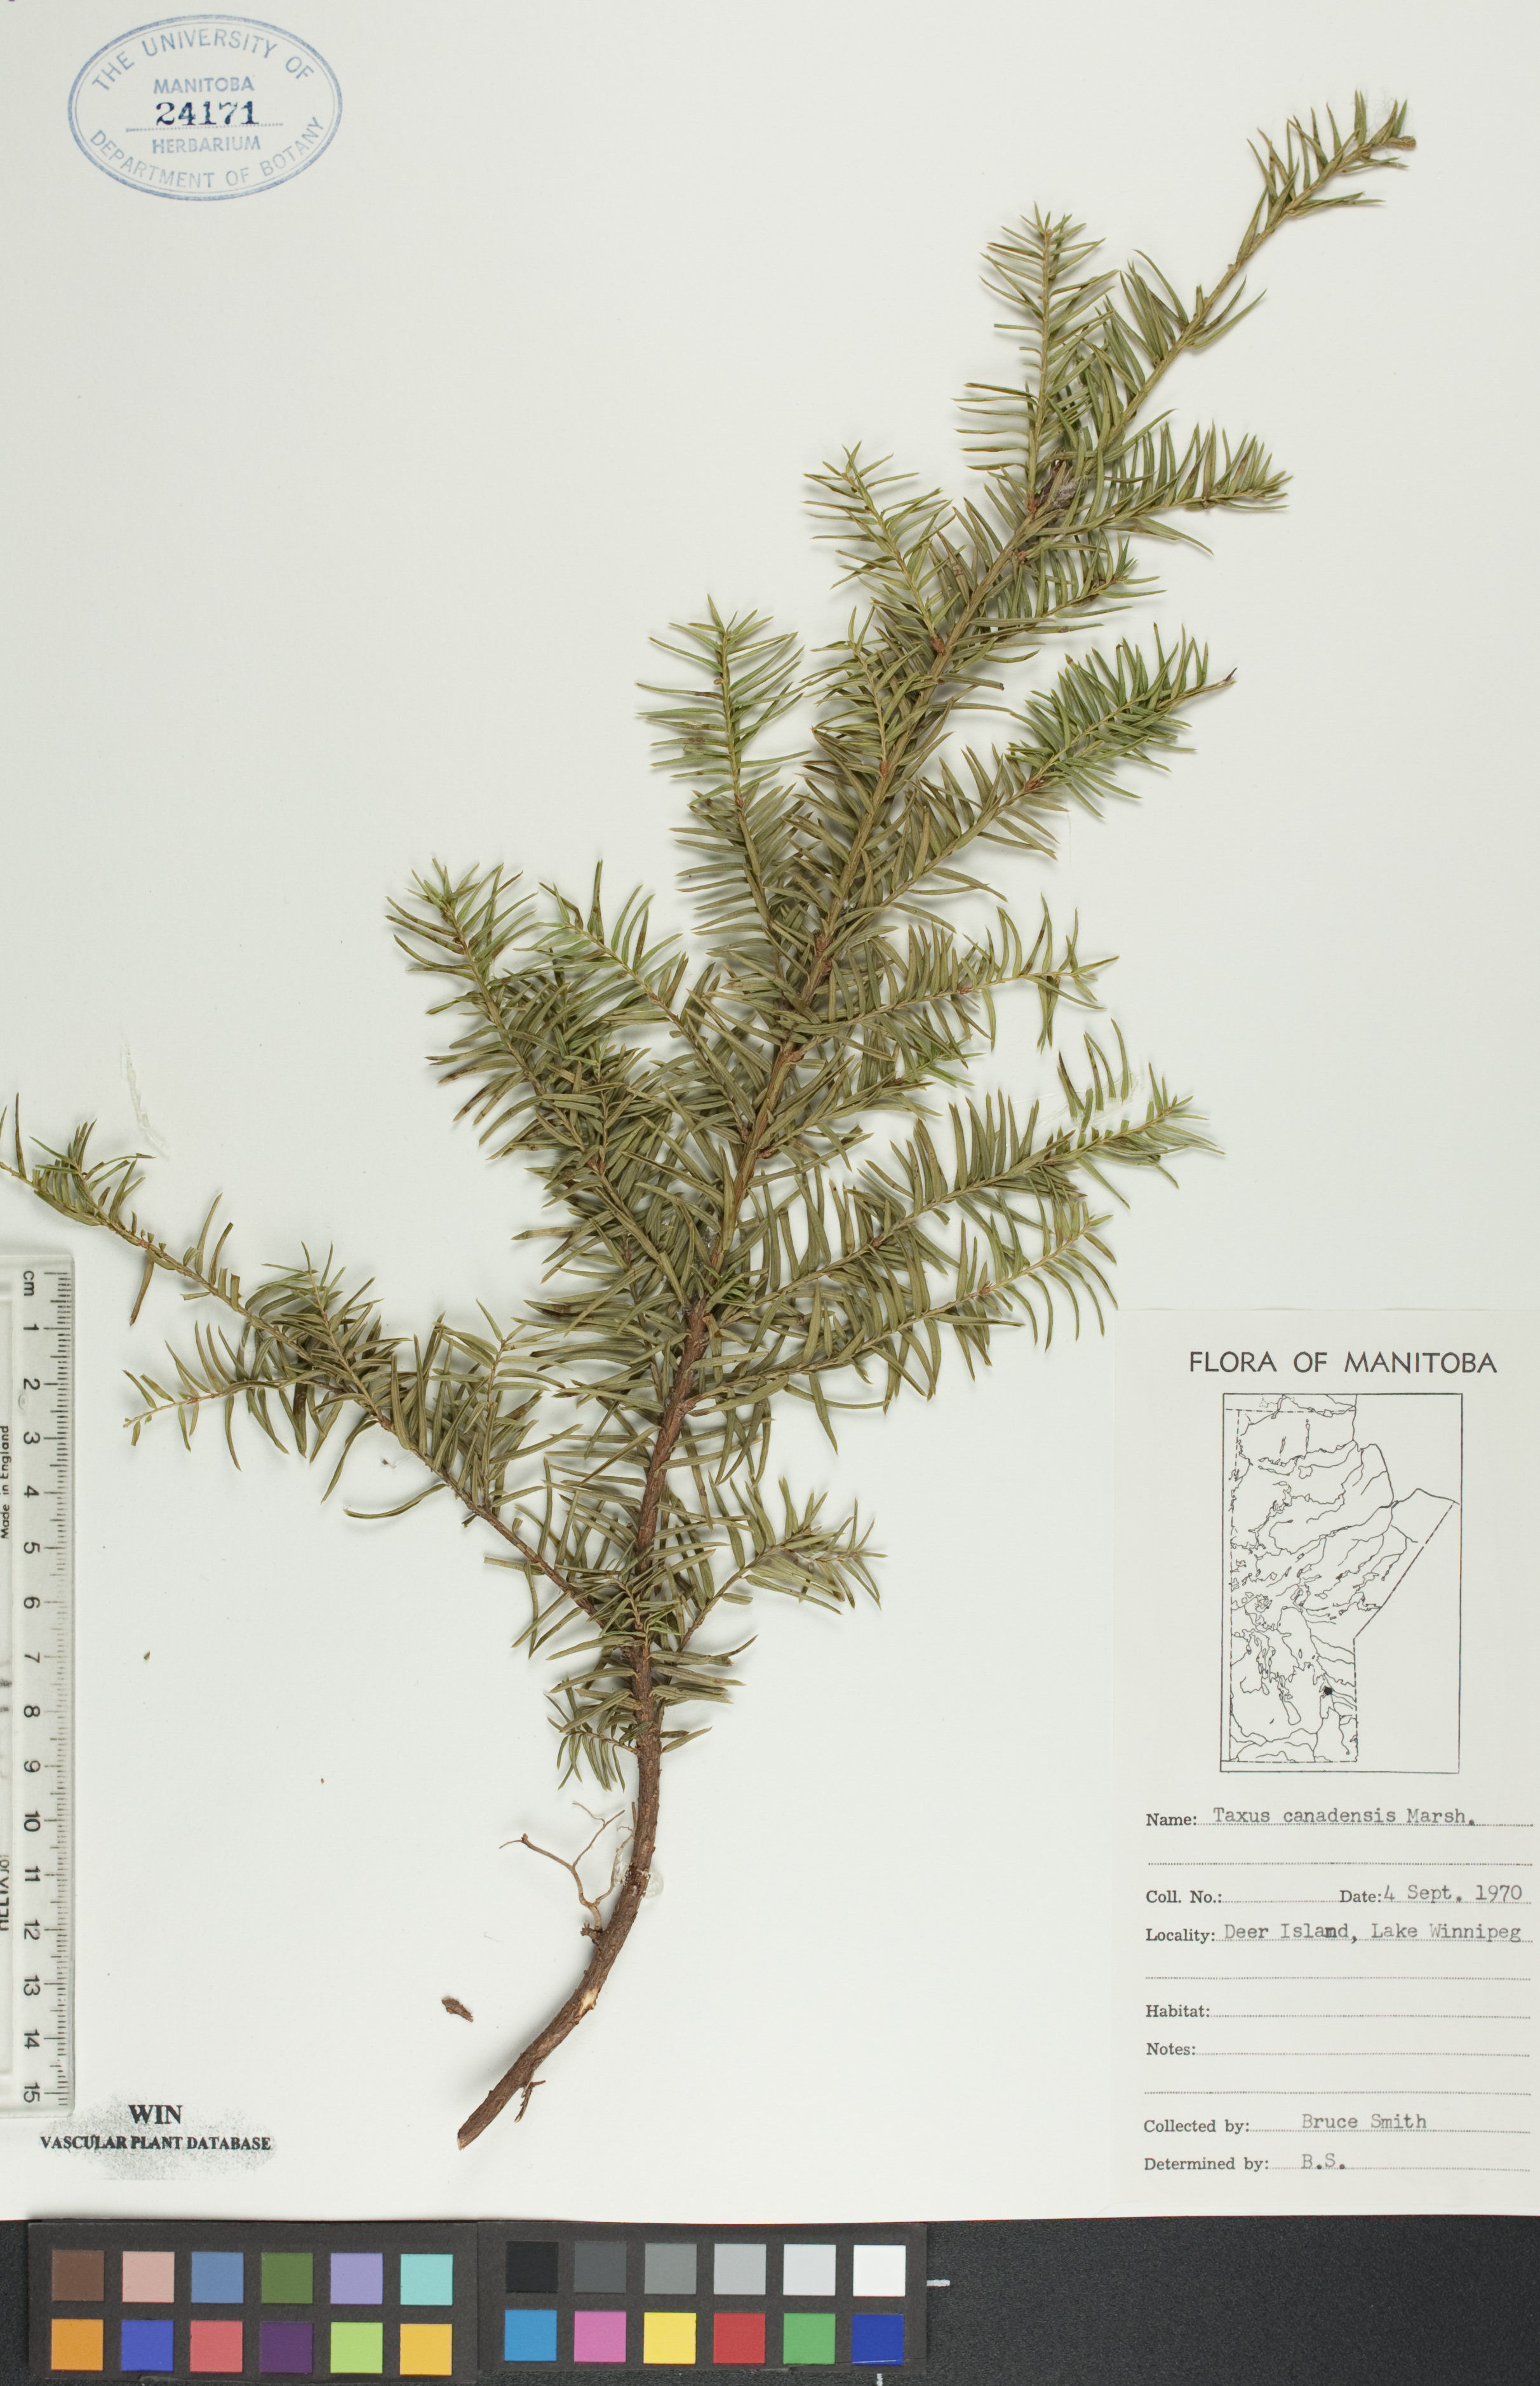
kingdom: Plantae
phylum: Tracheophyta
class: Pinopsida
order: Pinales
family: Taxaceae
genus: Taxus
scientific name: Taxus canadensis
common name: American yew
